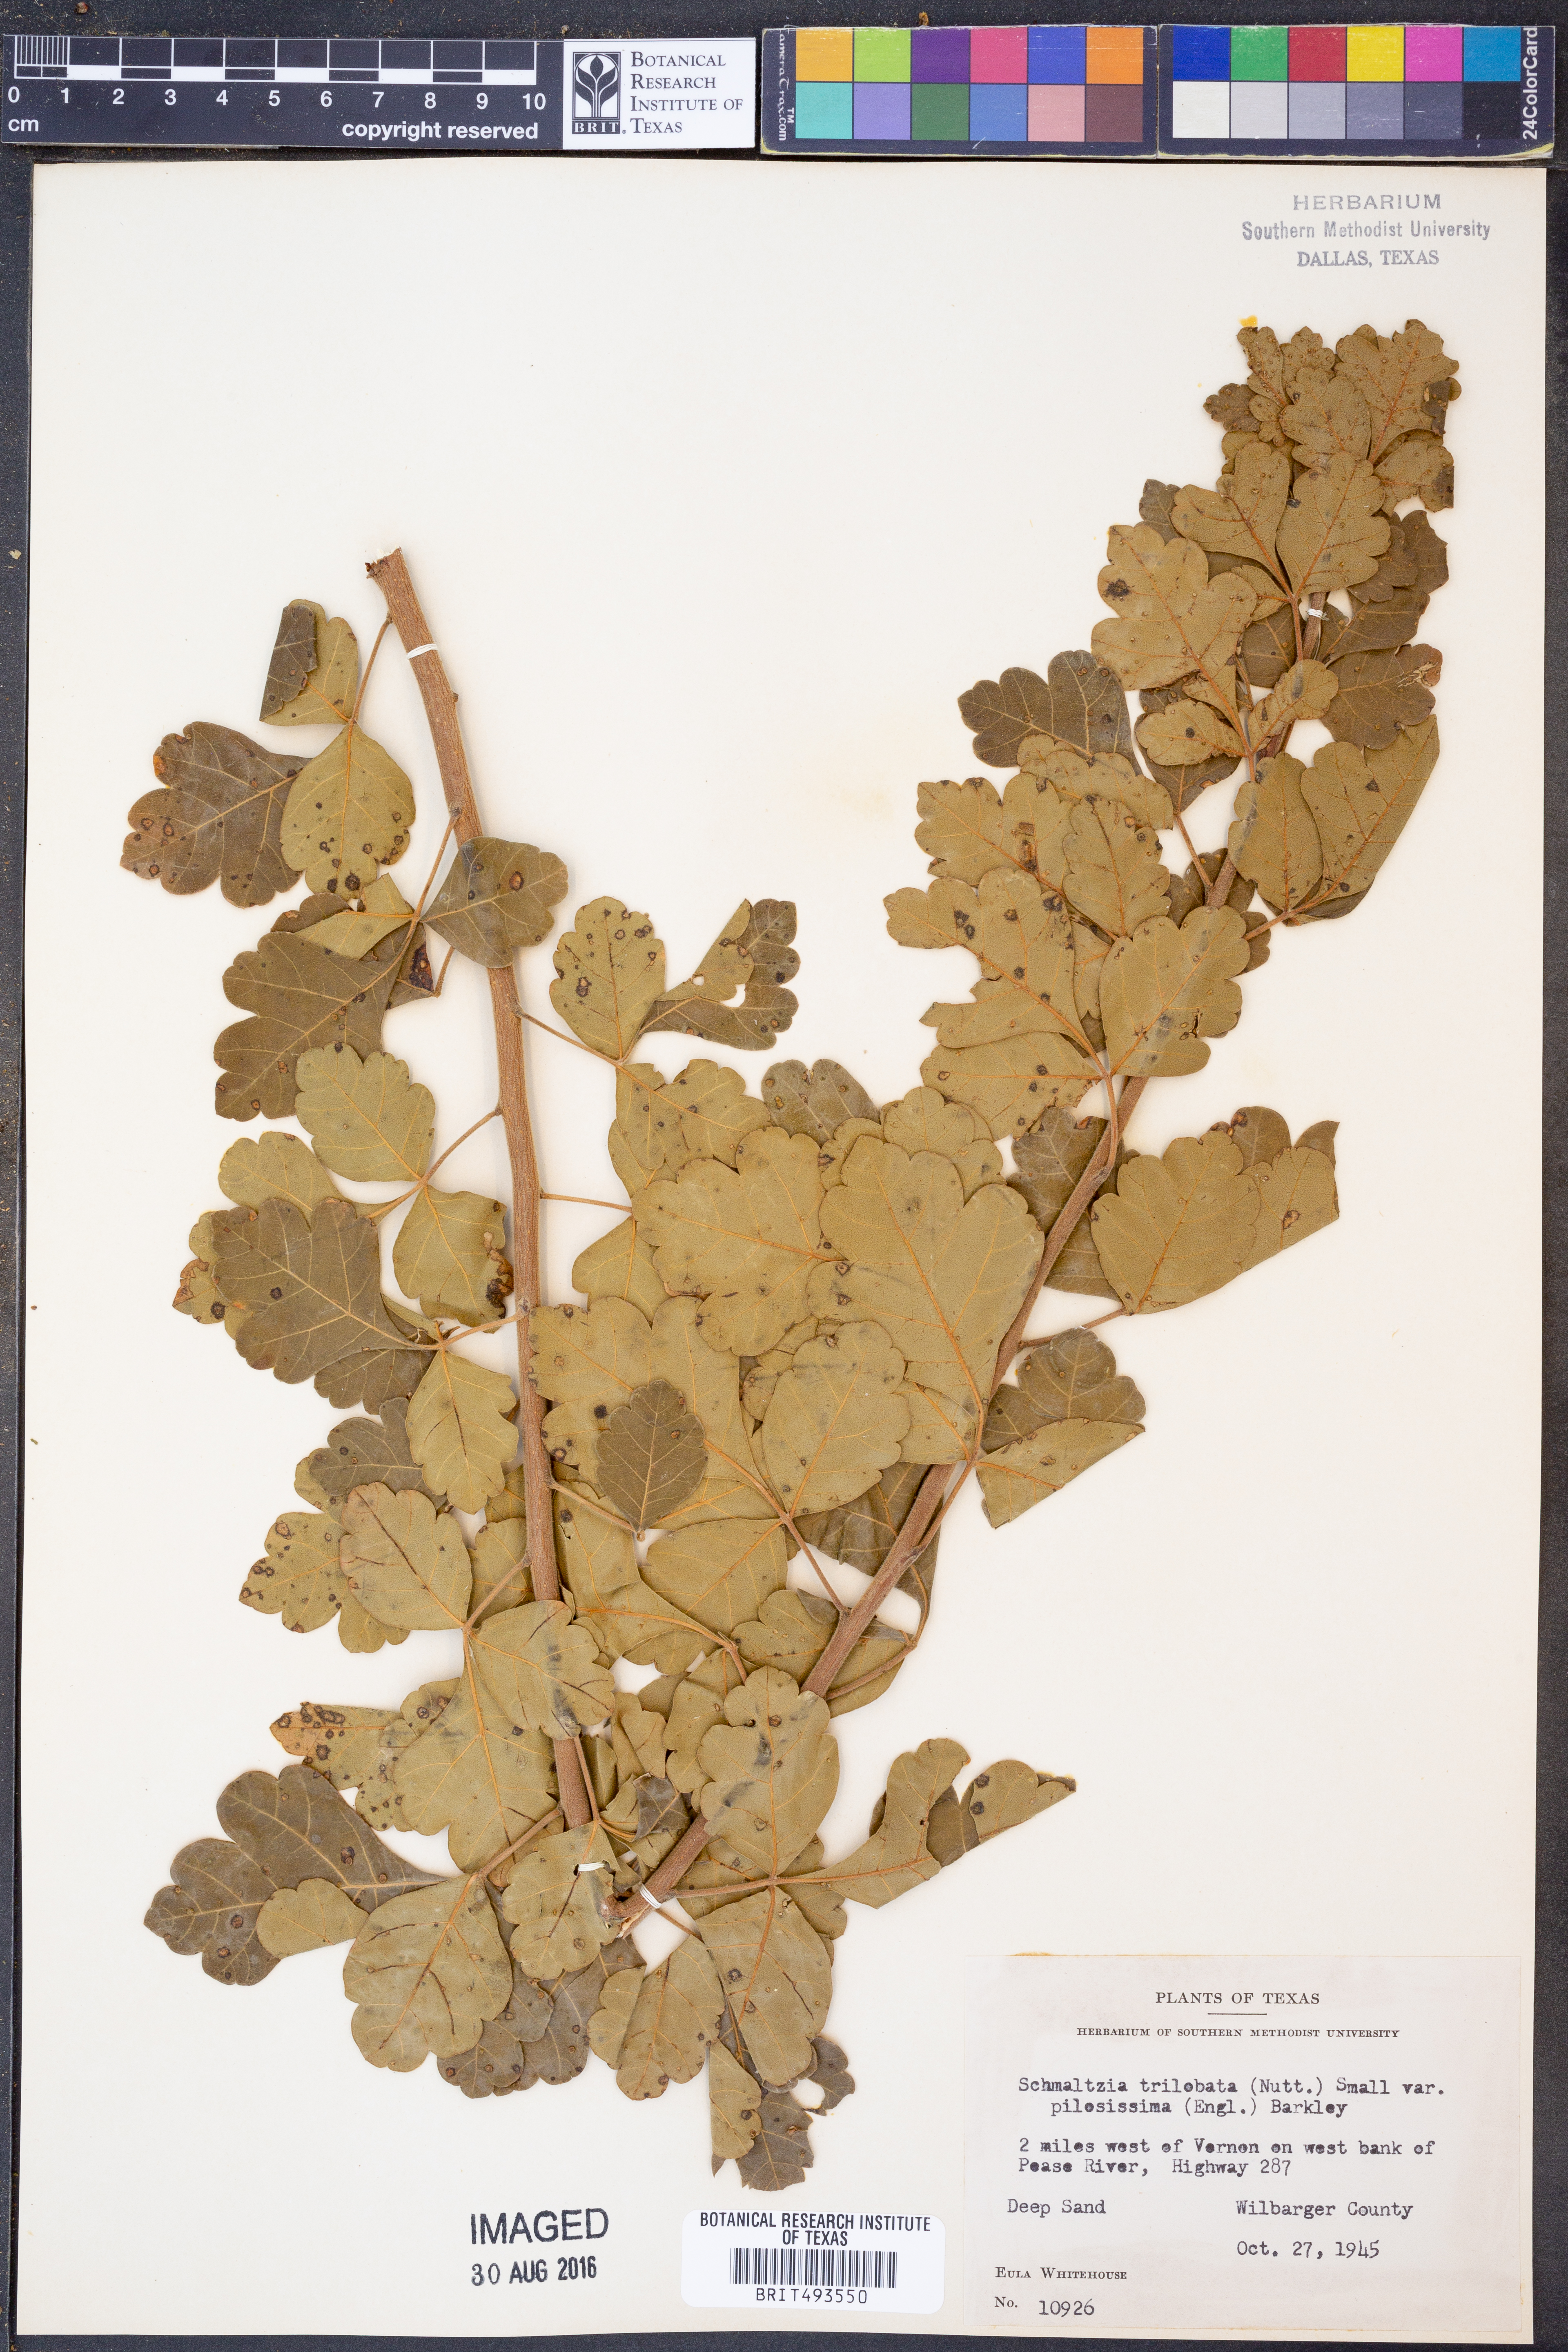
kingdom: Plantae
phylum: Tracheophyta
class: Magnoliopsida
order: Sapindales
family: Anacardiaceae
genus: Rhus
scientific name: Rhus trilobata
